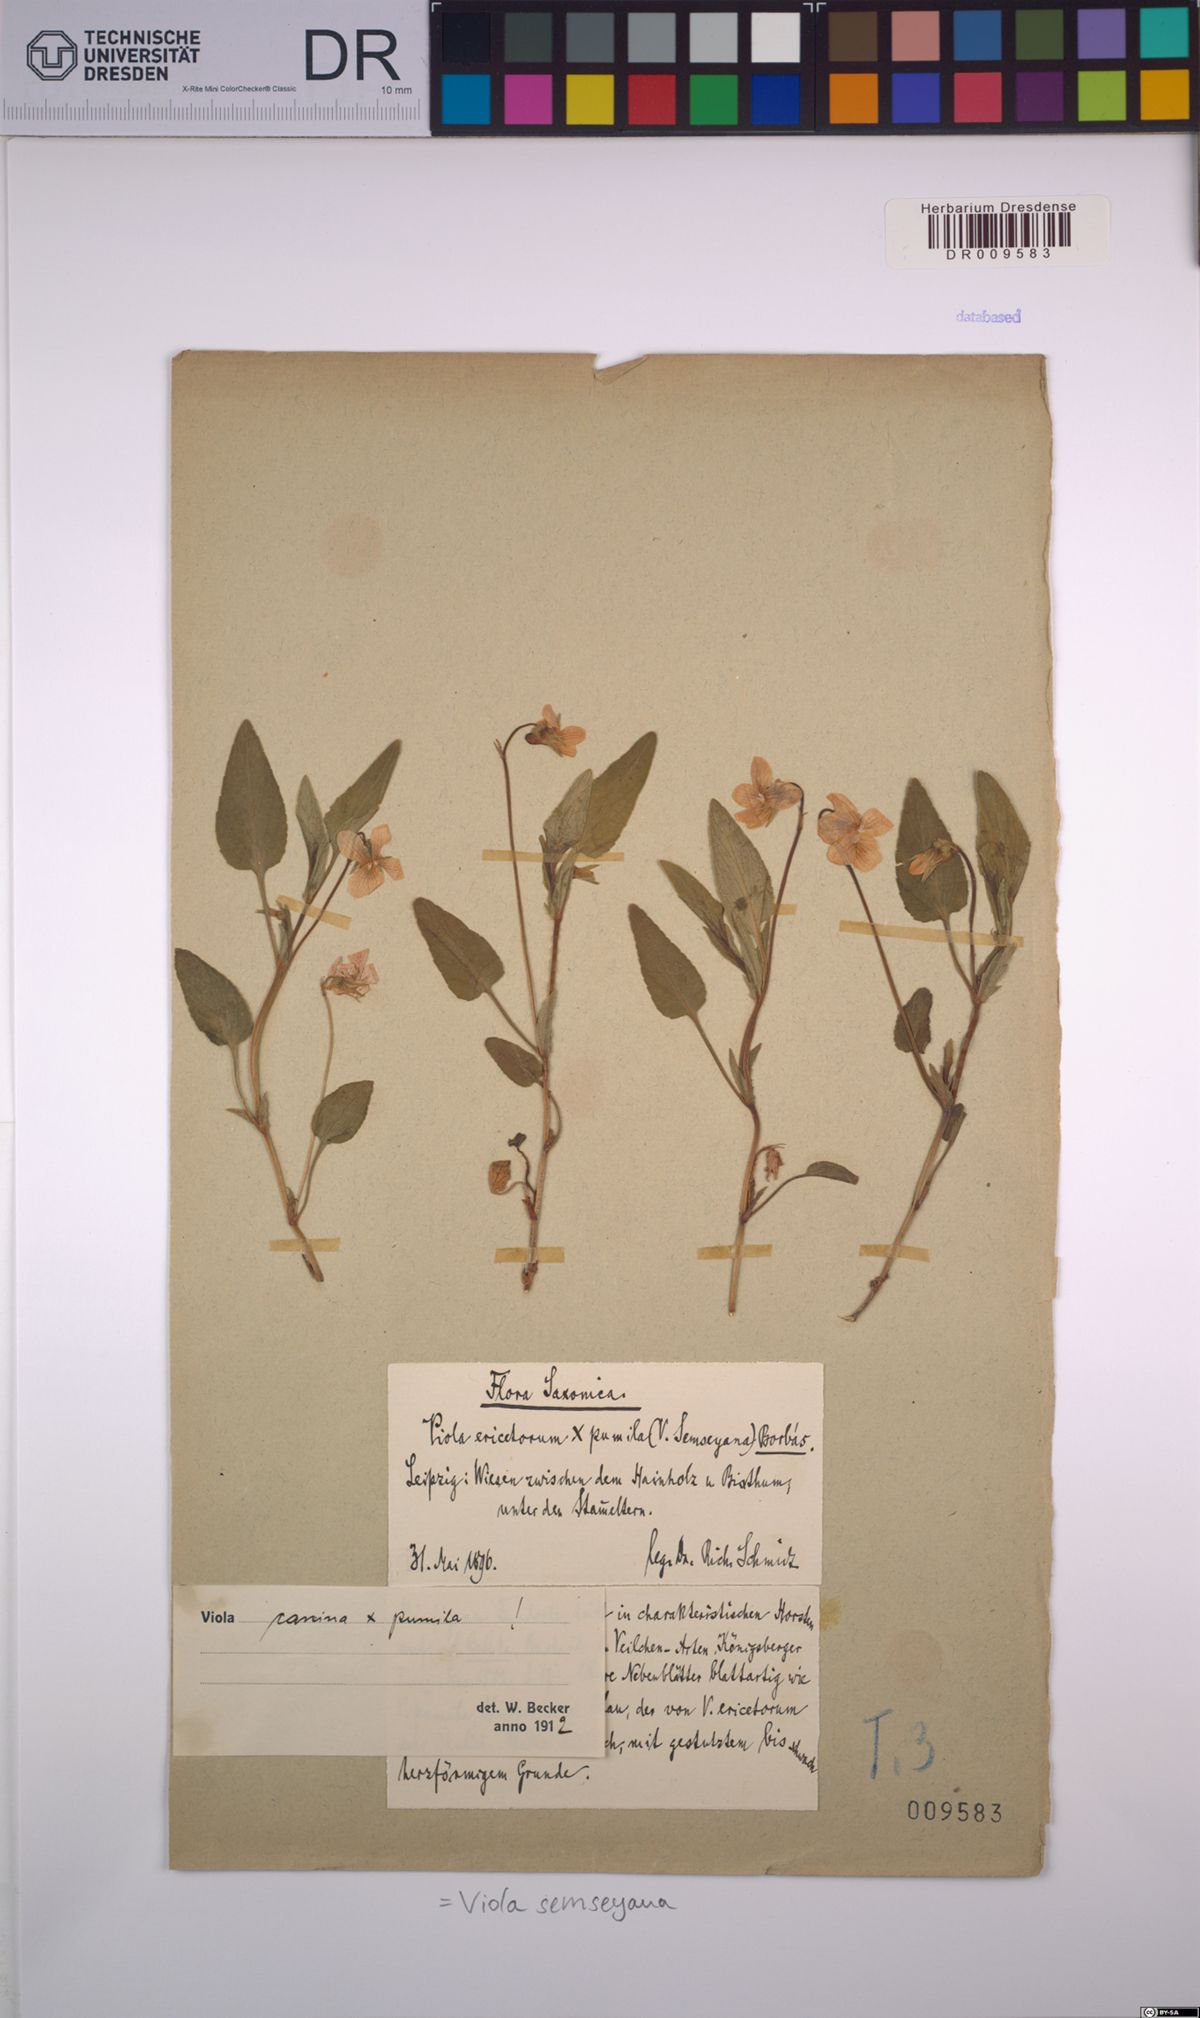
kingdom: Plantae
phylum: Tracheophyta
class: Magnoliopsida
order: Malpighiales
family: Violaceae
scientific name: Violaceae
